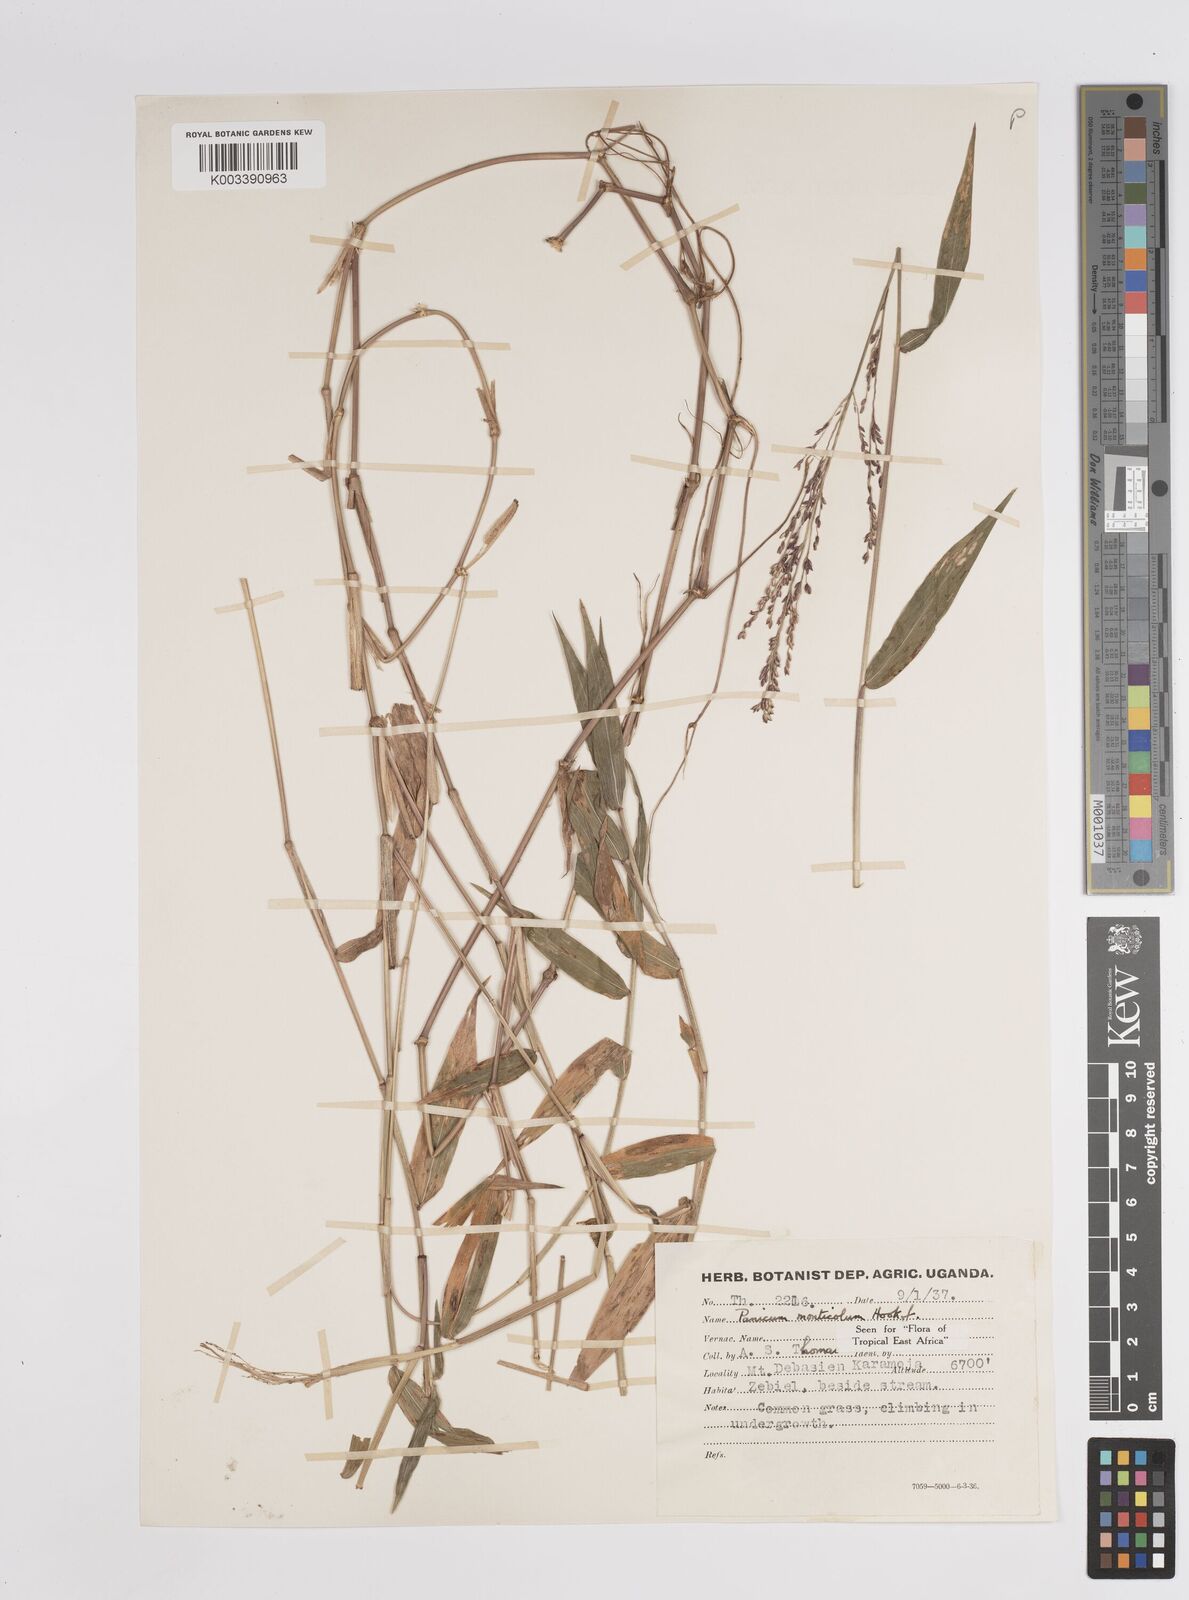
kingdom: Plantae
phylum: Tracheophyta
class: Liliopsida
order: Poales
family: Poaceae
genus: Panicum
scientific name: Panicum
